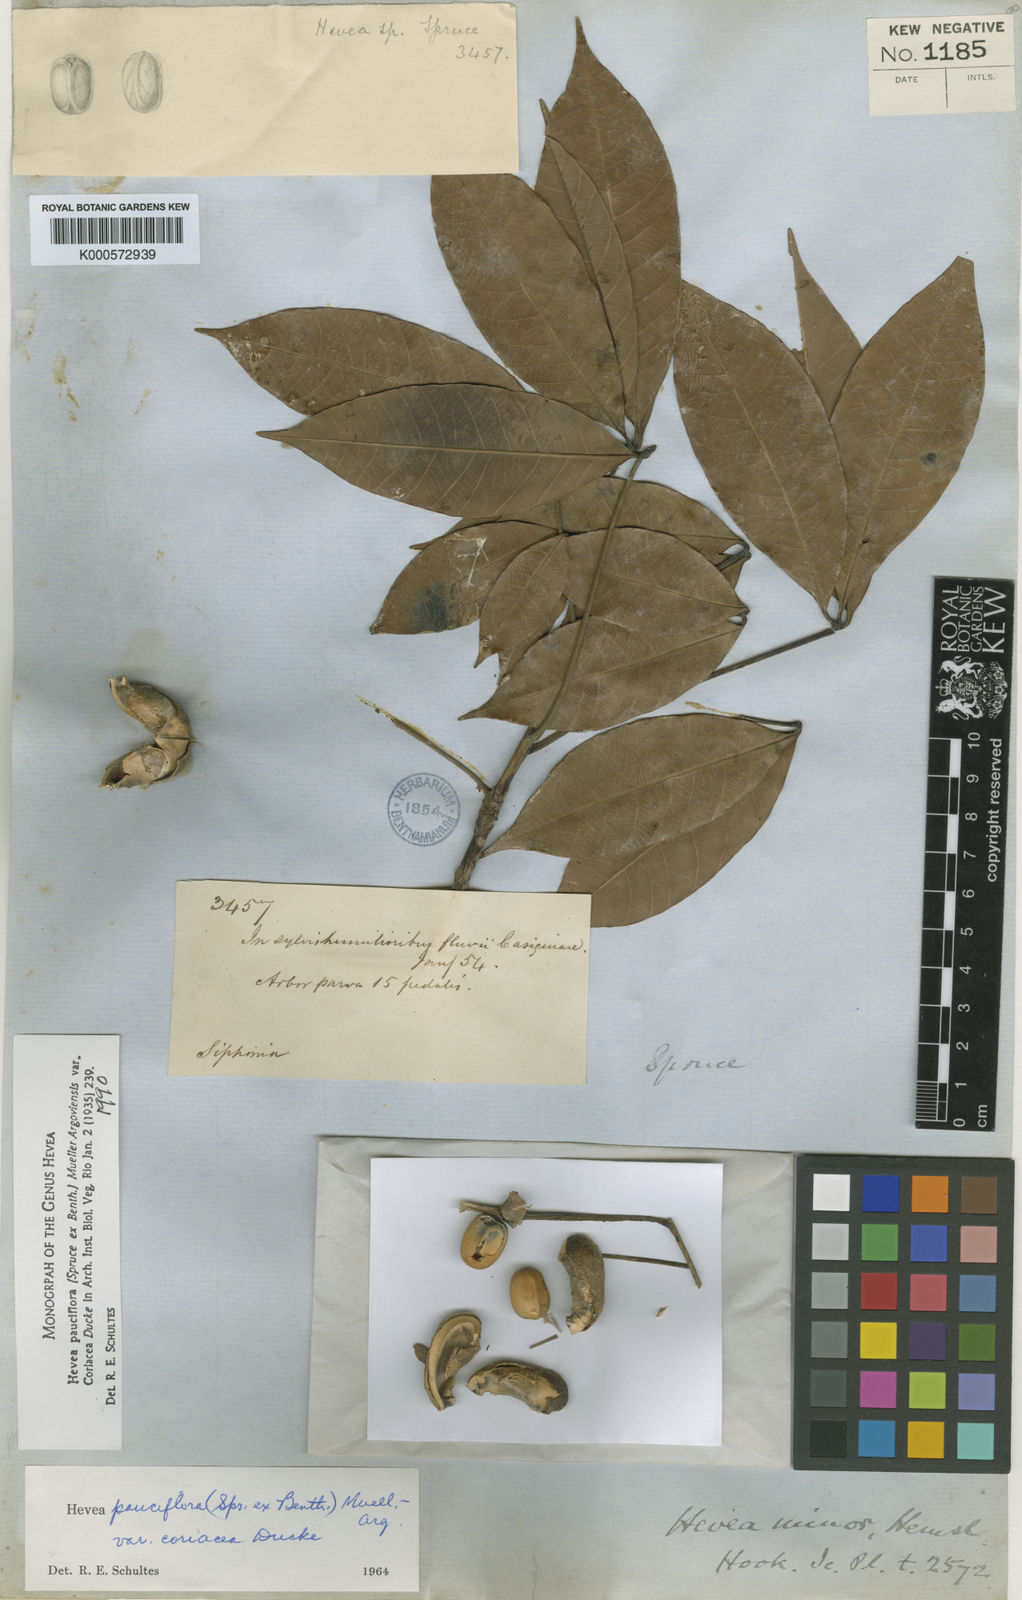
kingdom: Plantae
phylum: Tracheophyta
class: Magnoliopsida
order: Malpighiales
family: Euphorbiaceae
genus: Hevea
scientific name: Hevea pauciflora
